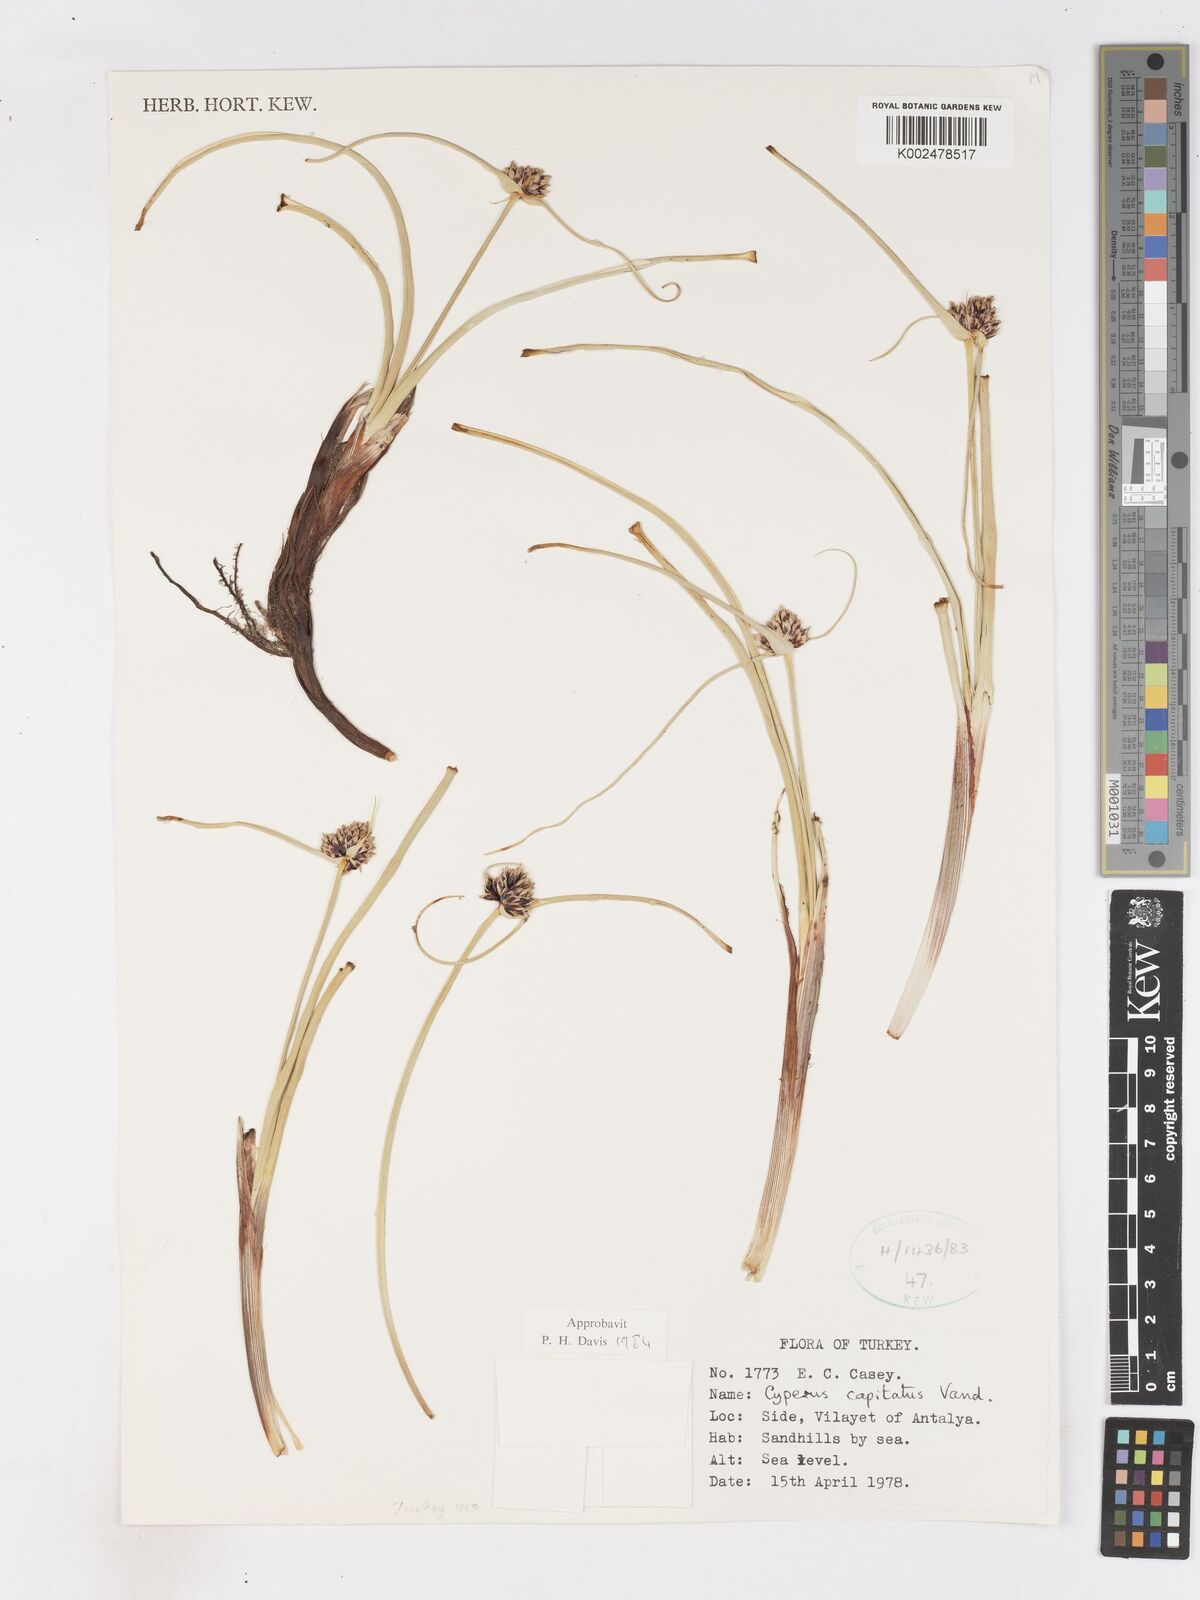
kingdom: Plantae
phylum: Tracheophyta
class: Liliopsida
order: Poales
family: Cyperaceae
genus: Cyperus
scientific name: Cyperus capitatus
